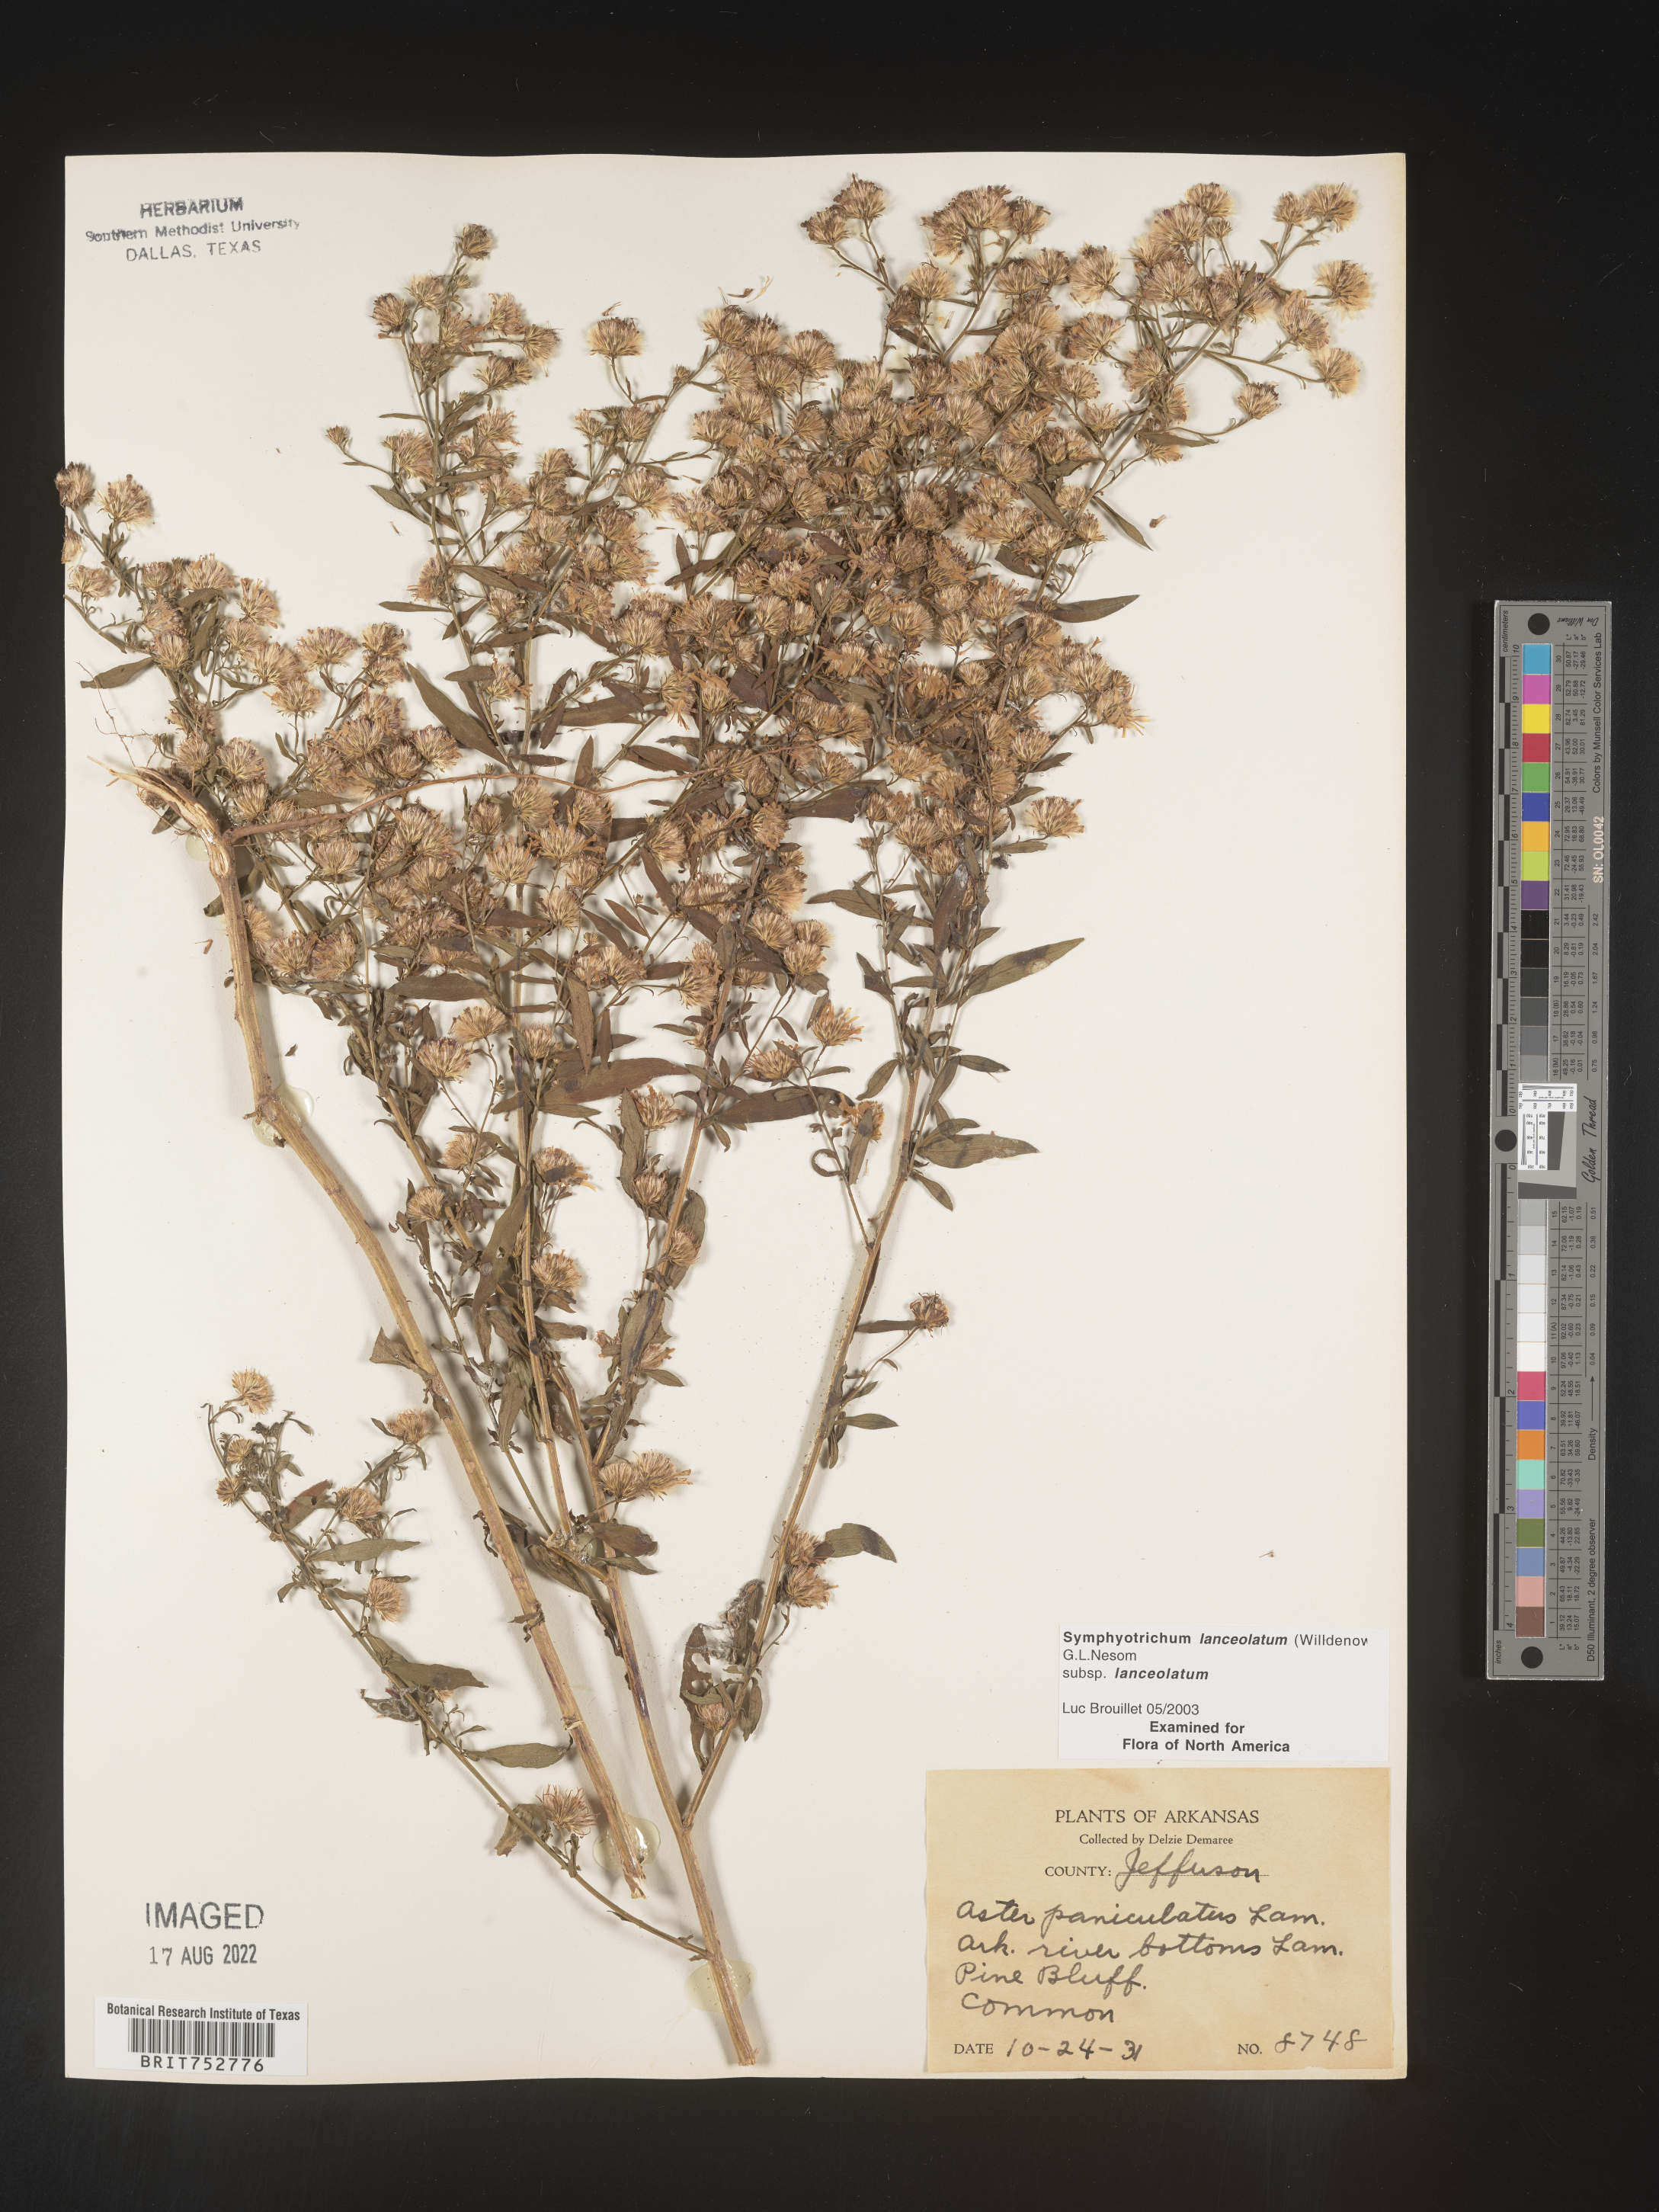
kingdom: Plantae
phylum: Tracheophyta
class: Magnoliopsida
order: Asterales
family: Asteraceae
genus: Symphyotrichum
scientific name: Symphyotrichum lanceolatum
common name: Panicled aster
